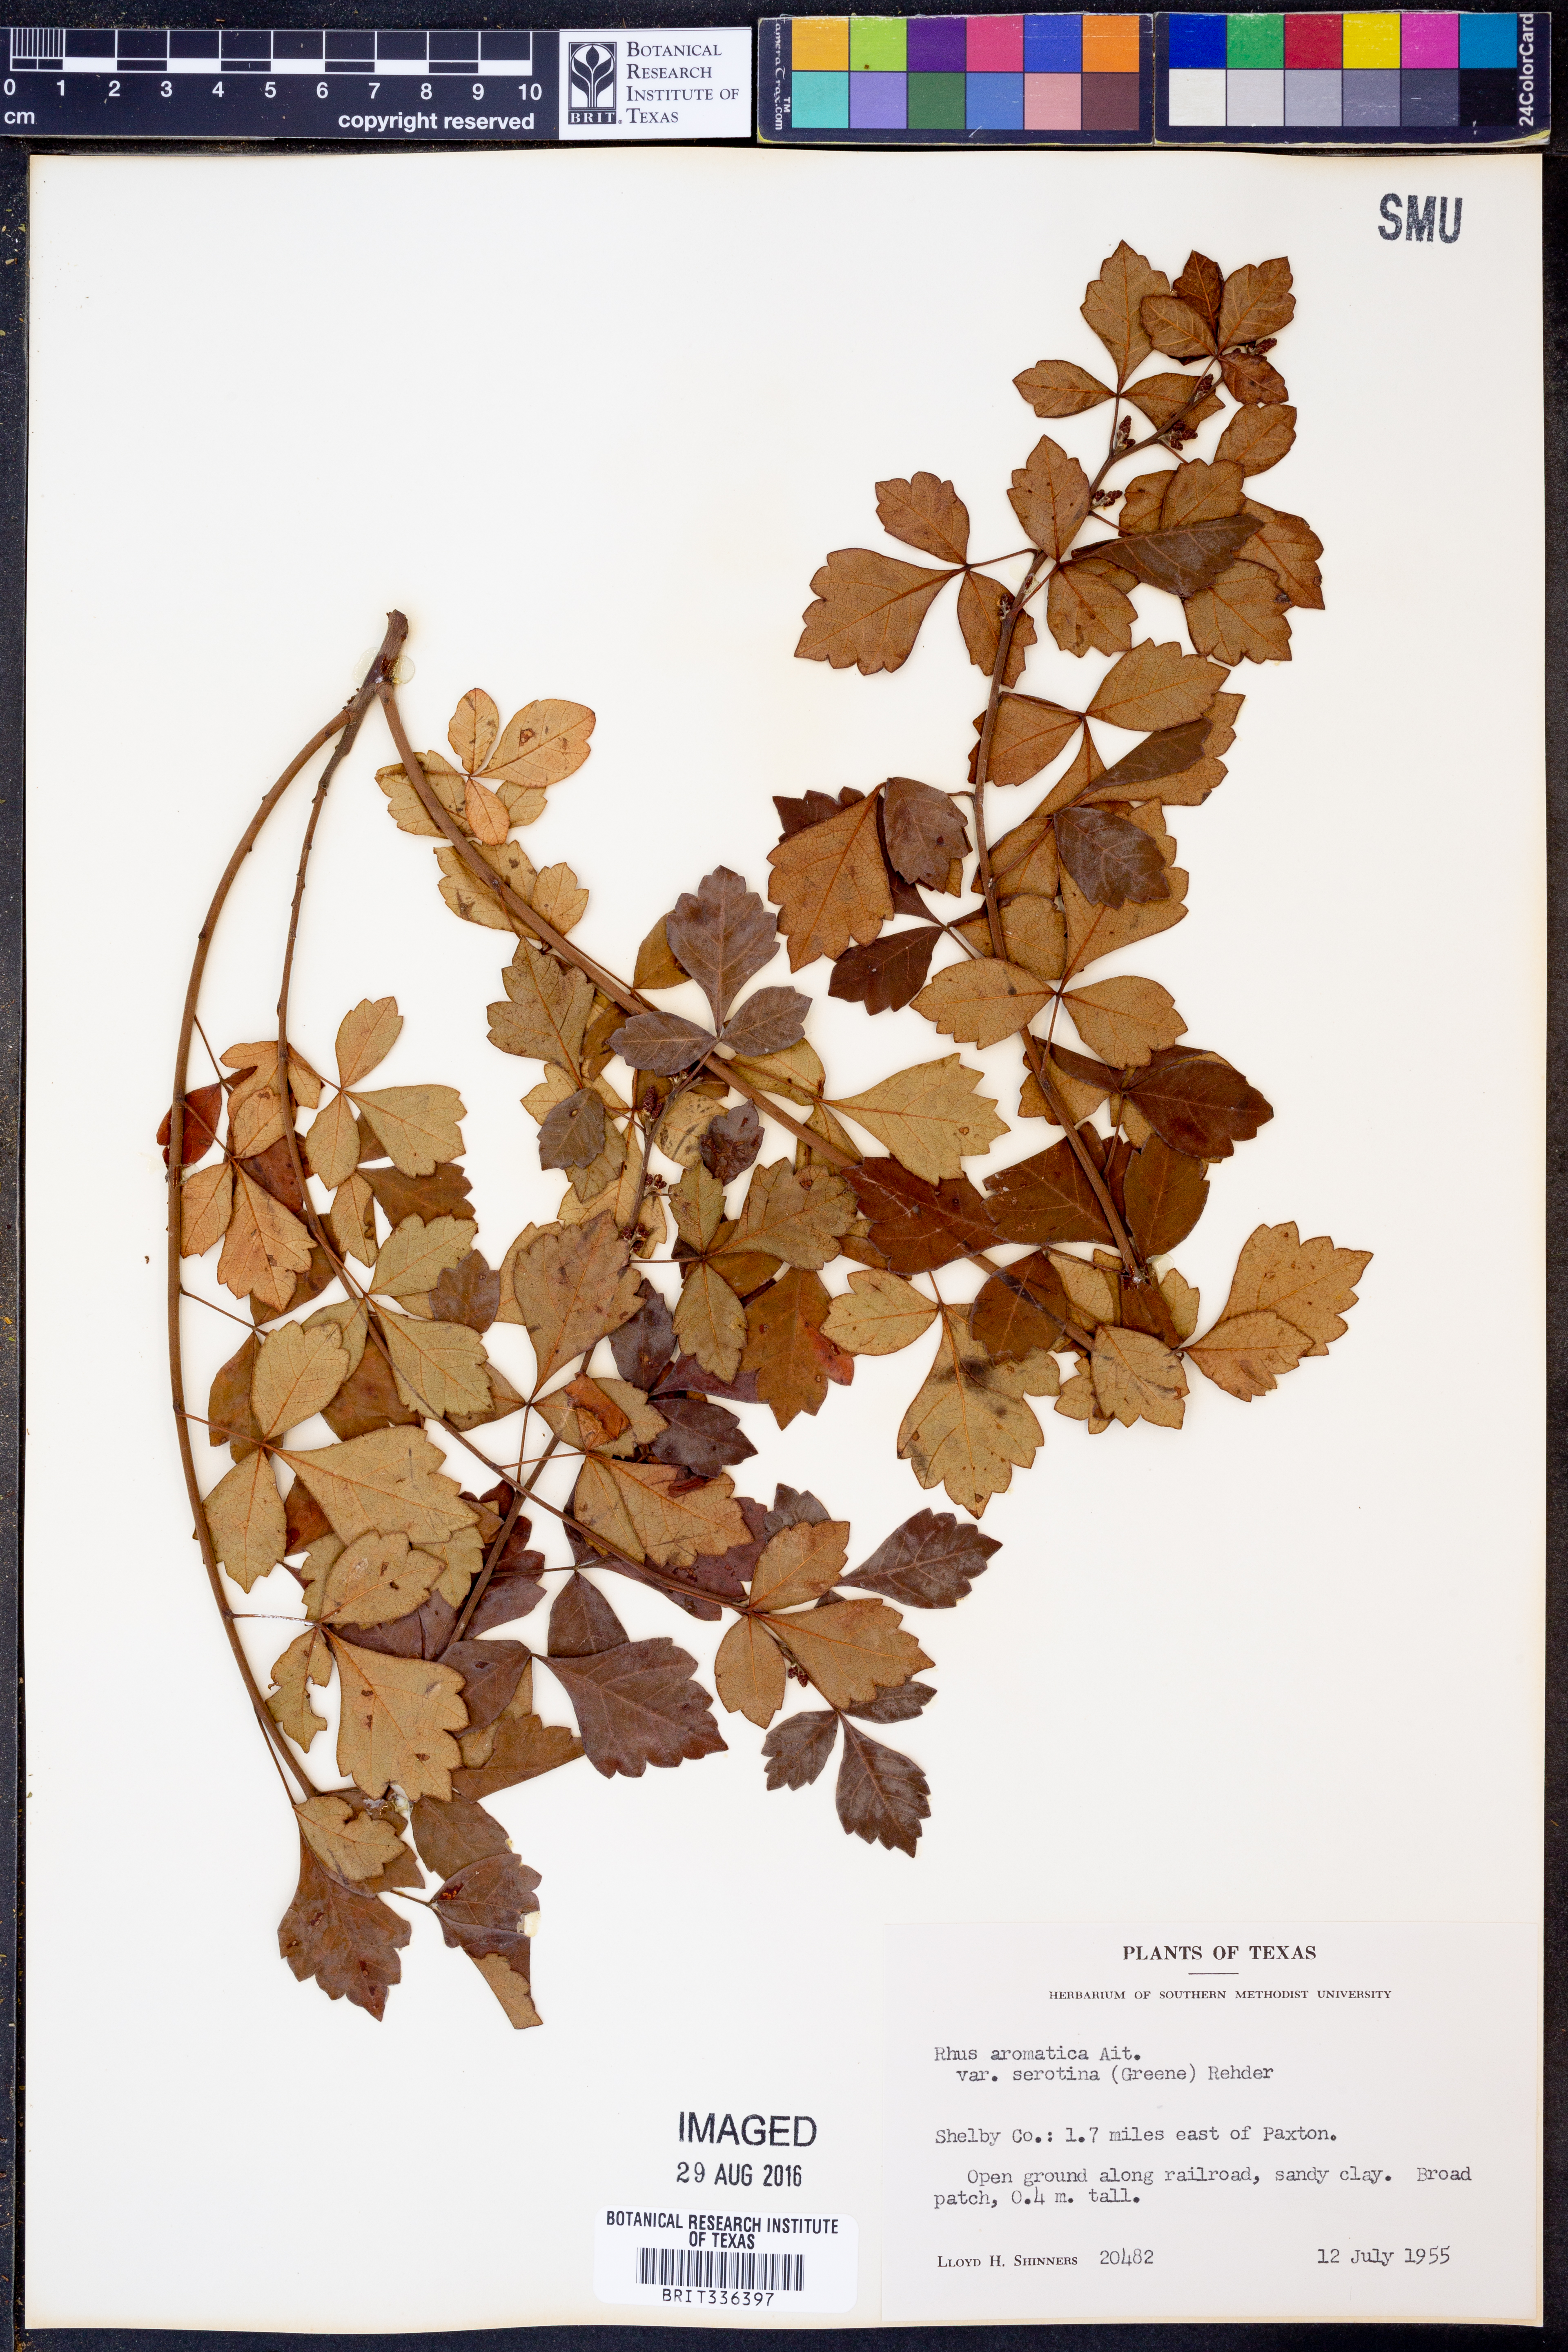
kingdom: Plantae
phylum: Tracheophyta
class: Magnoliopsida
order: Sapindales
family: Anacardiaceae
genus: Rhus
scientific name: Rhus aromatica
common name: Aromatic sumac
